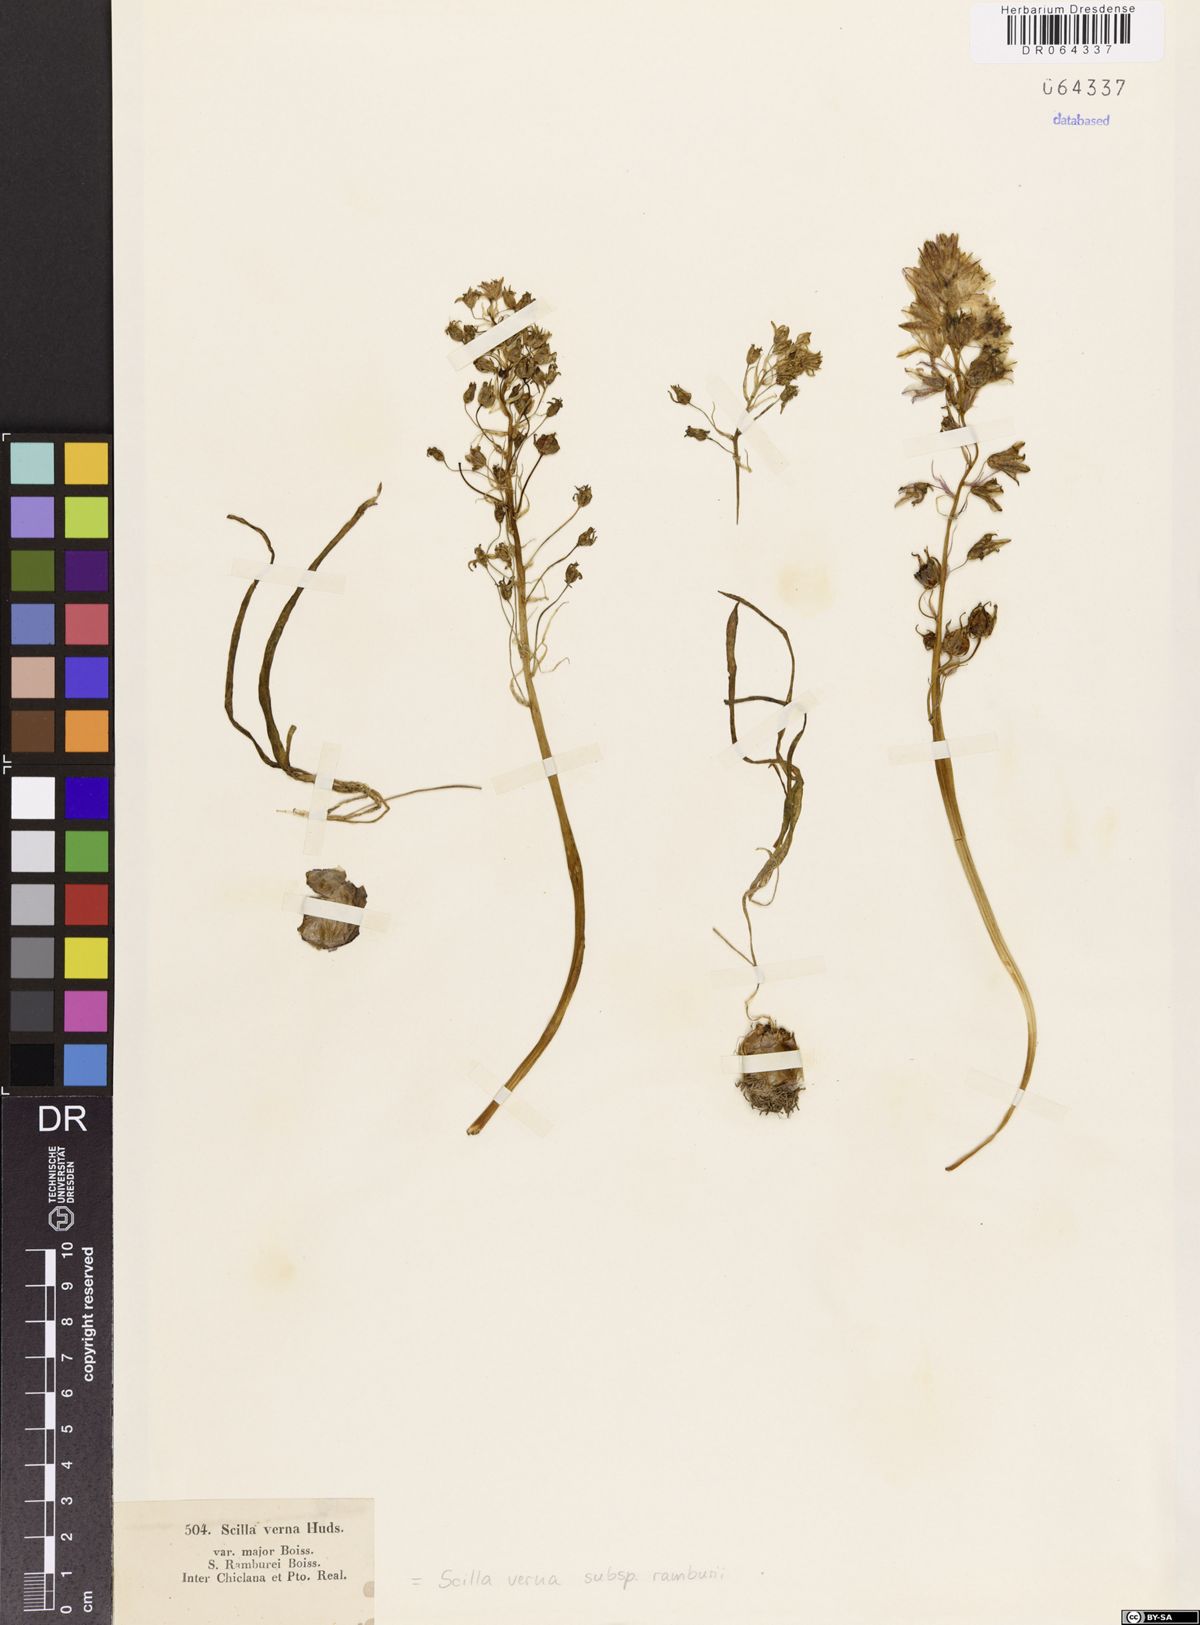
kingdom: Plantae
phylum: Tracheophyta
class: Liliopsida
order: Asparagales
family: Asparagaceae
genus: Scilla
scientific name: Scilla verna
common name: Spring squill
